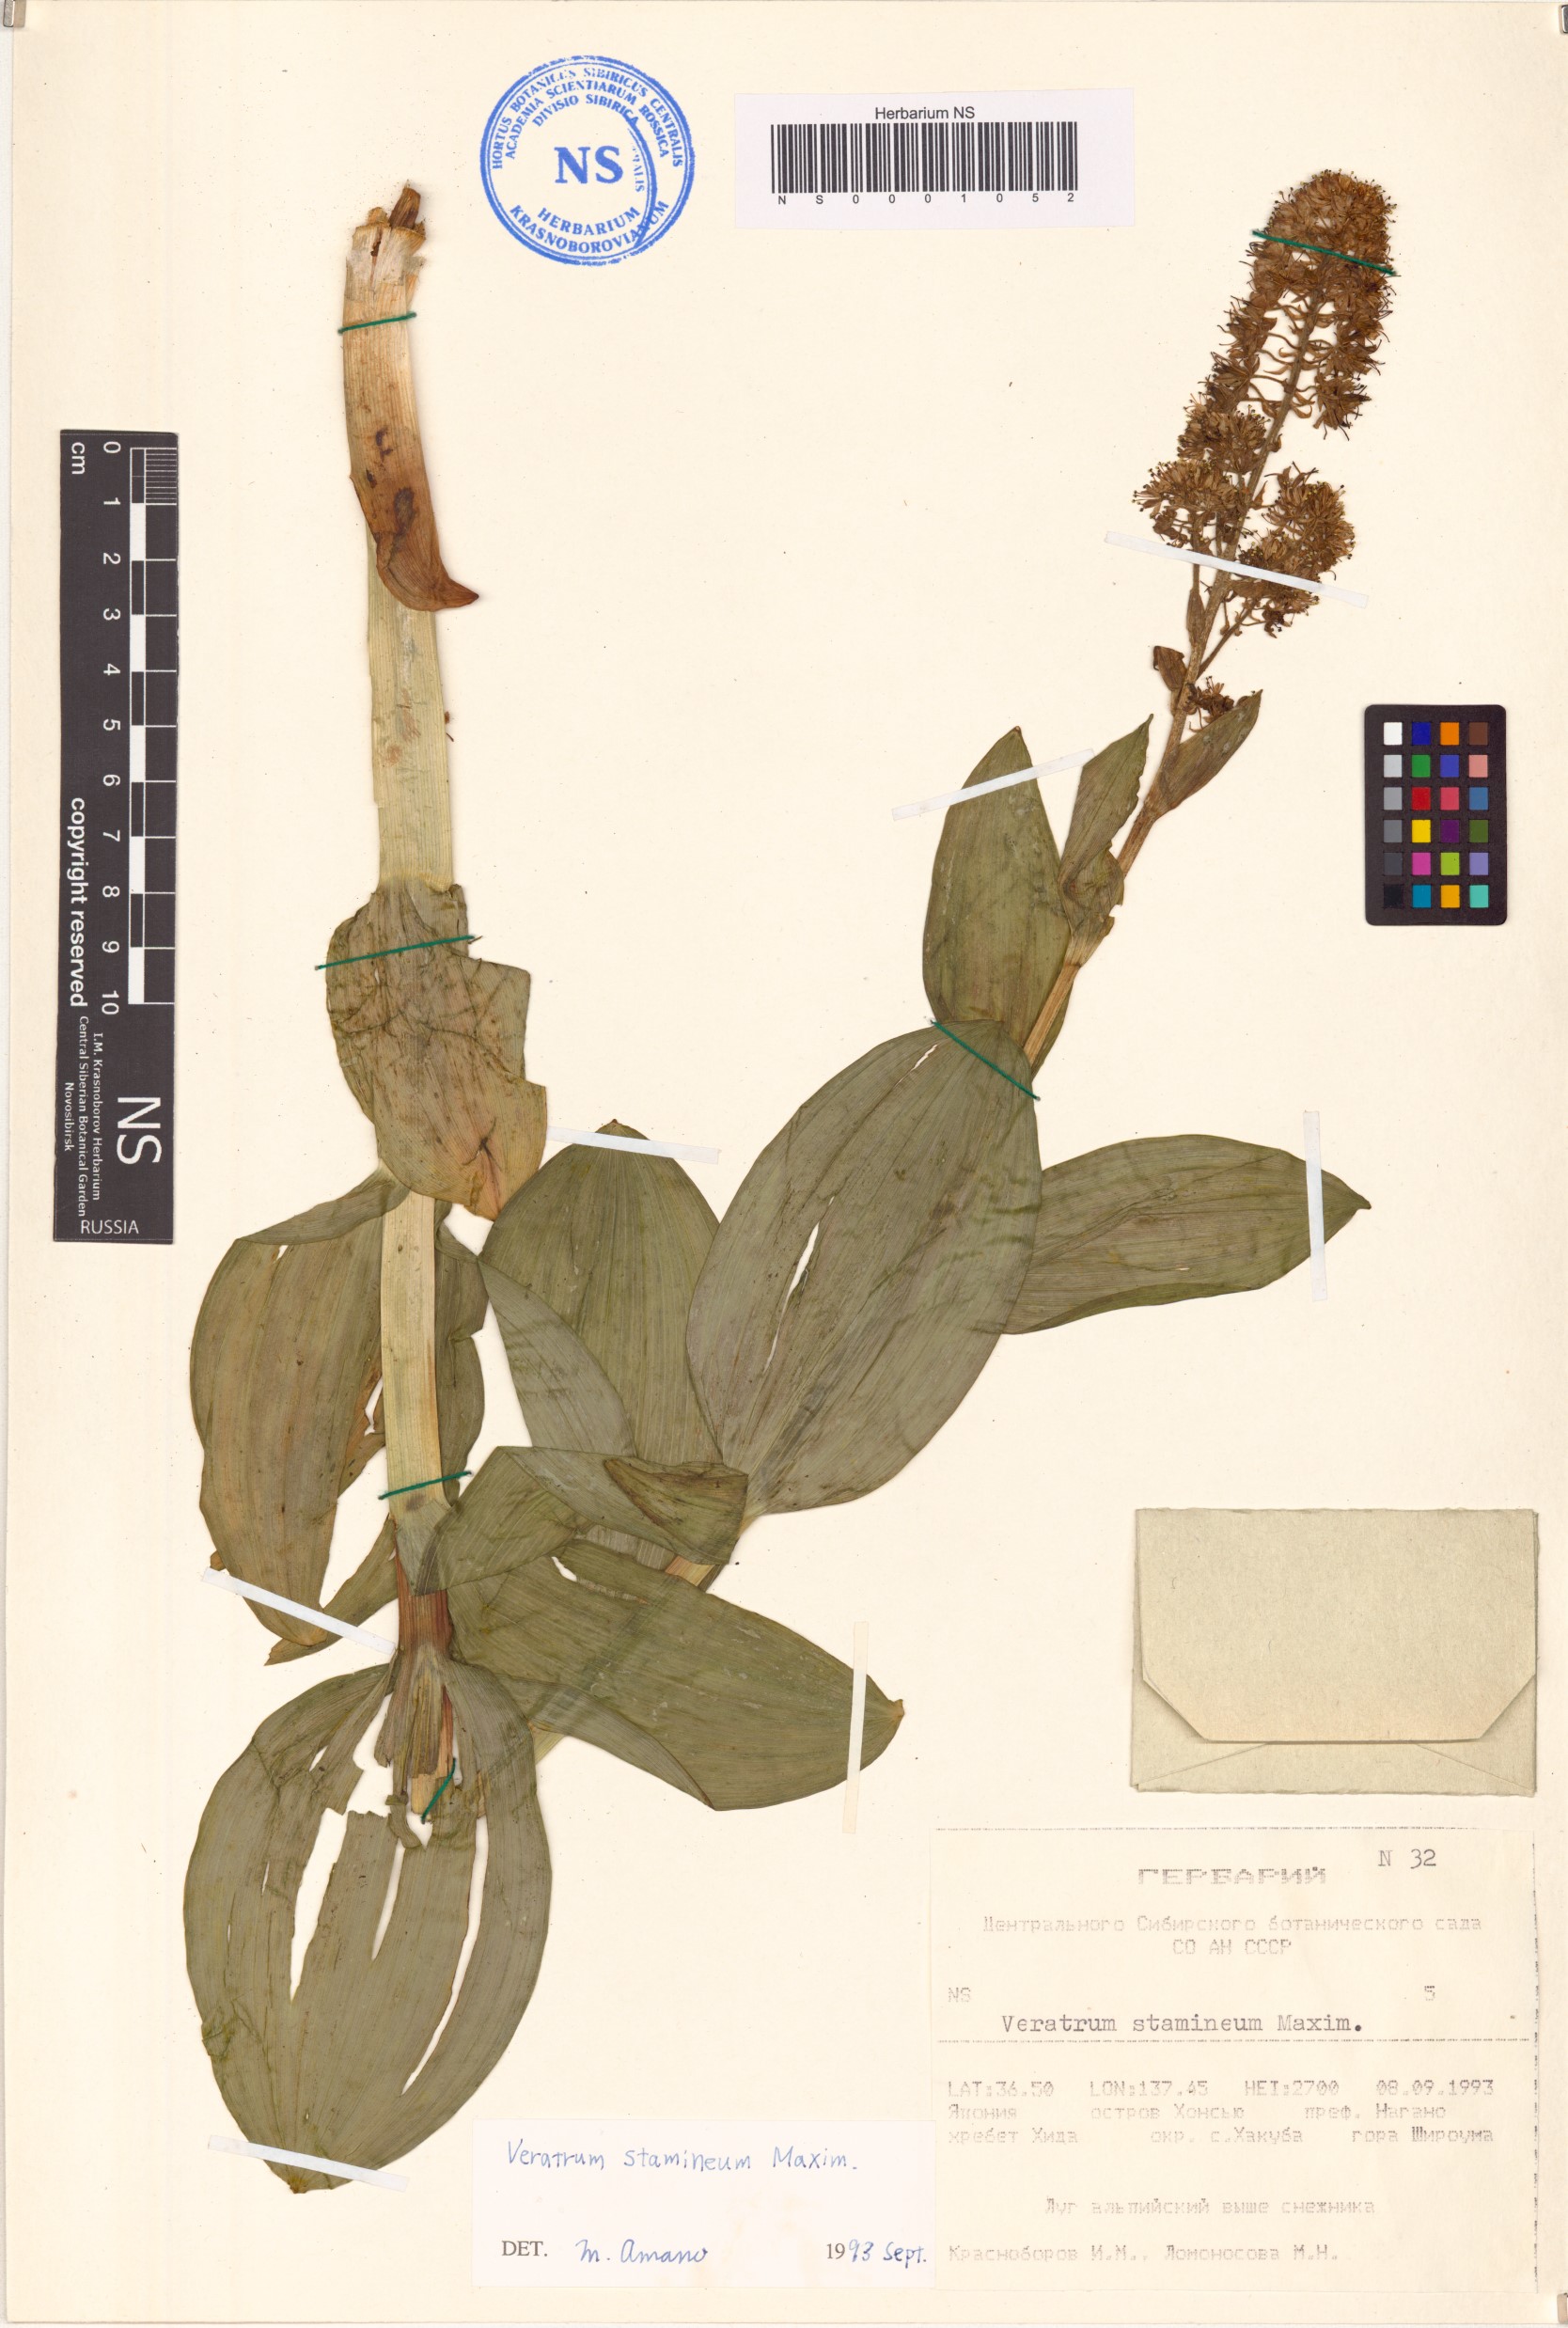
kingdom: Plantae
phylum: Tracheophyta
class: Liliopsida
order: Liliales
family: Melanthiaceae
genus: Veratrum
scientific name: Veratrum stamineum
